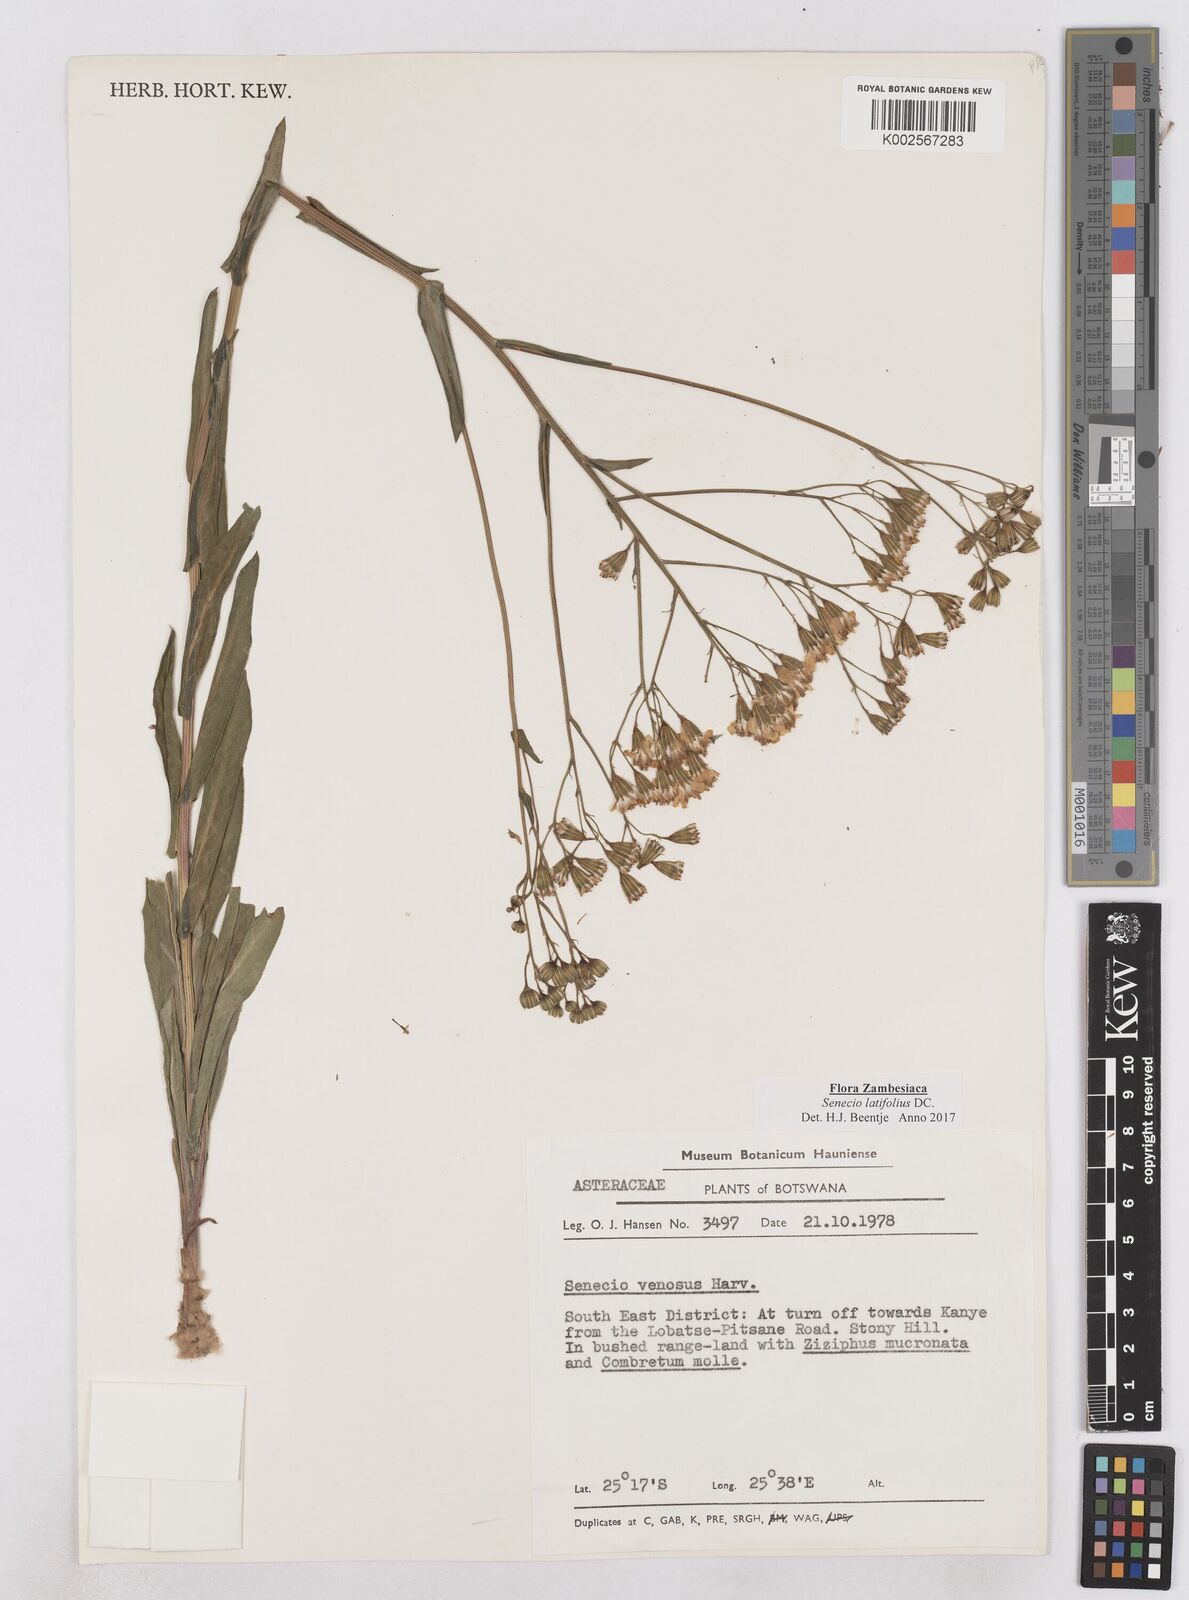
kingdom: Plantae
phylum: Tracheophyta
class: Magnoliopsida
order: Asterales
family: Asteraceae
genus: Senecio
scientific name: Senecio latifolius
